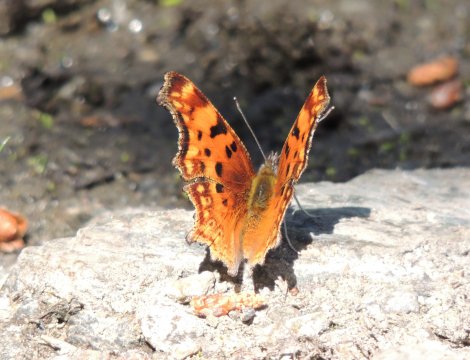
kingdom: Animalia
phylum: Arthropoda
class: Insecta
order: Lepidoptera
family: Nymphalidae
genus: Polygonia
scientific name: Polygonia gracilis
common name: Hoary Comma
